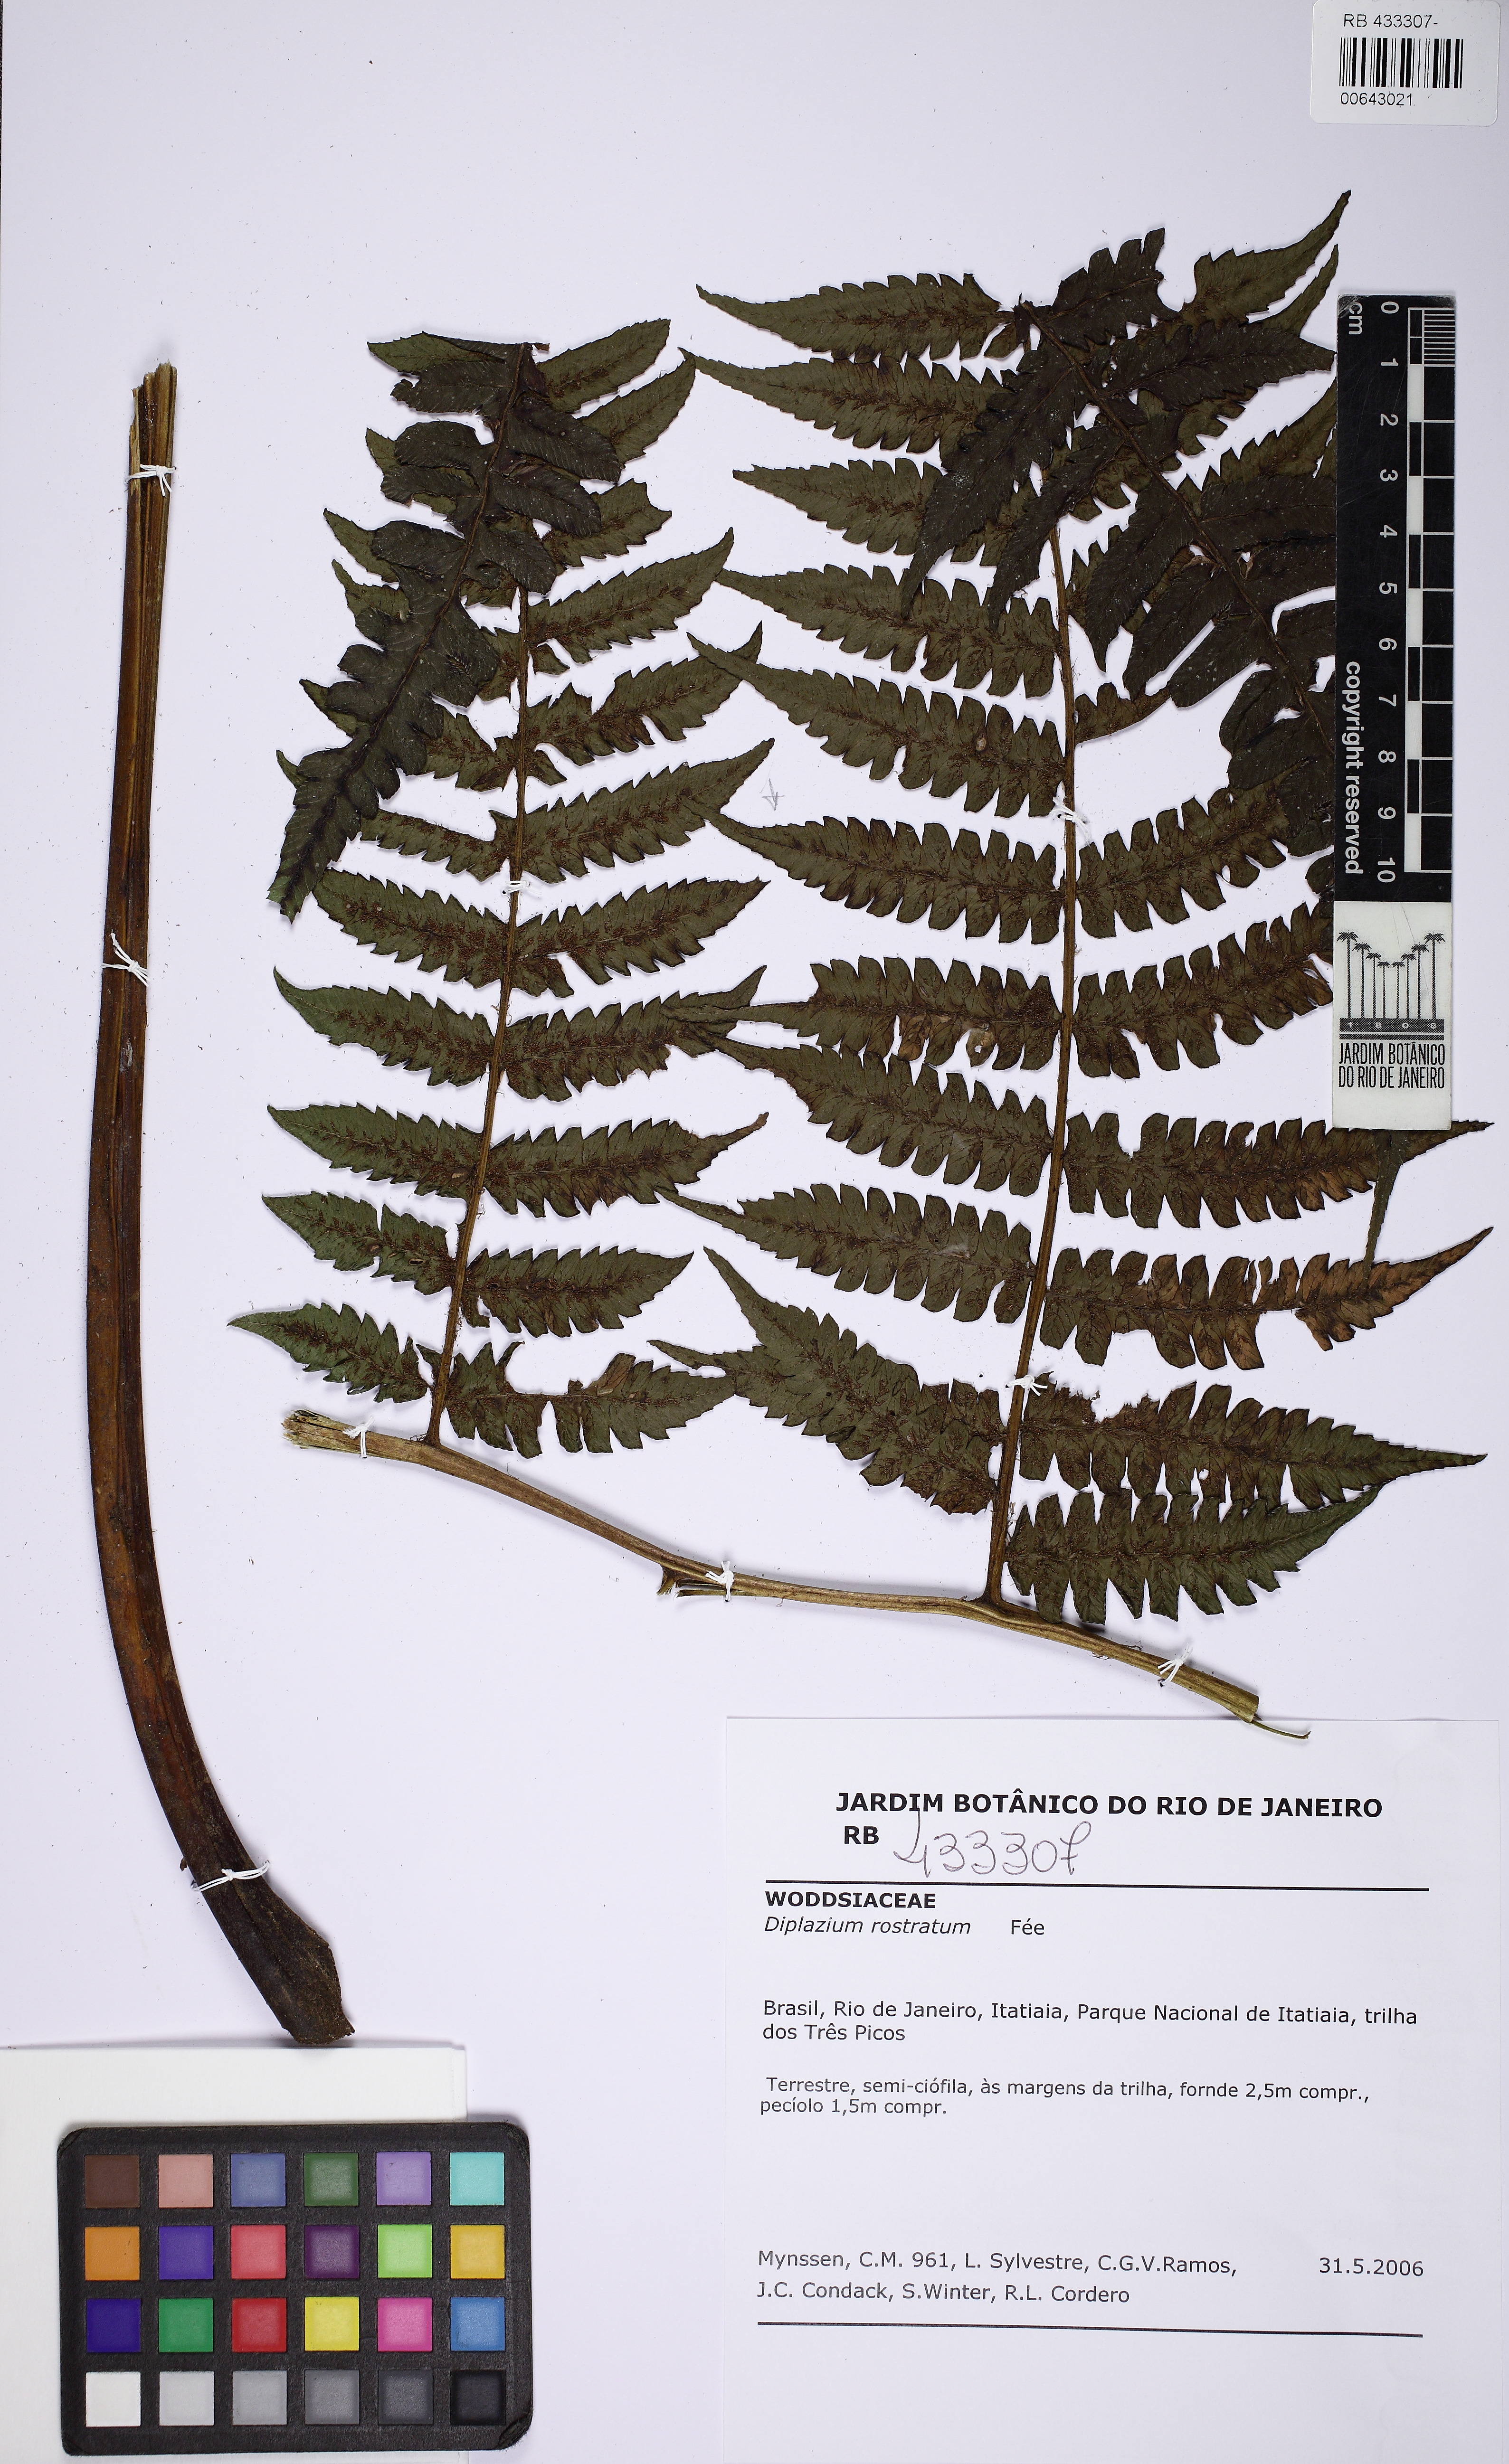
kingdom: Plantae
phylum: Tracheophyta
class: Polypodiopsida
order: Polypodiales
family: Athyriaceae
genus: Diplazium
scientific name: Diplazium rostratum
